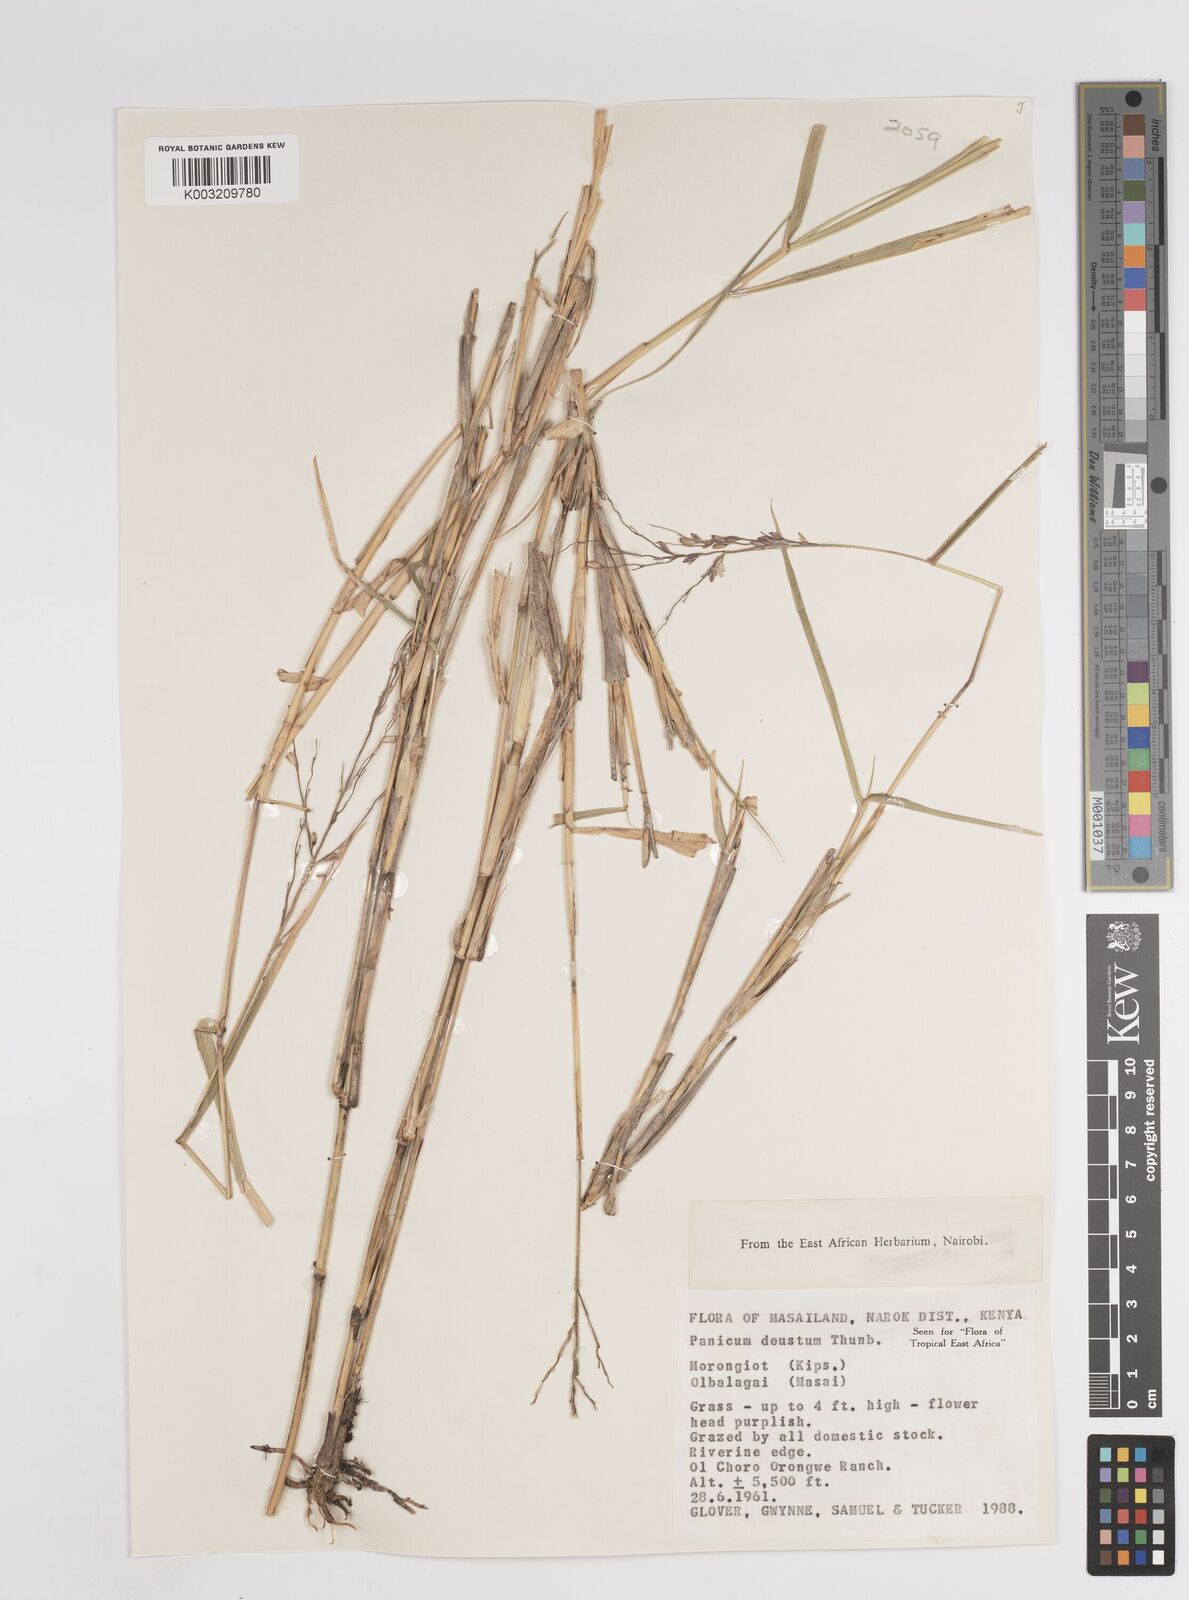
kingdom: Plantae
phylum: Tracheophyta
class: Liliopsida
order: Poales
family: Poaceae
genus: Panicum
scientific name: Panicum deustum
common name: Reed panicum
